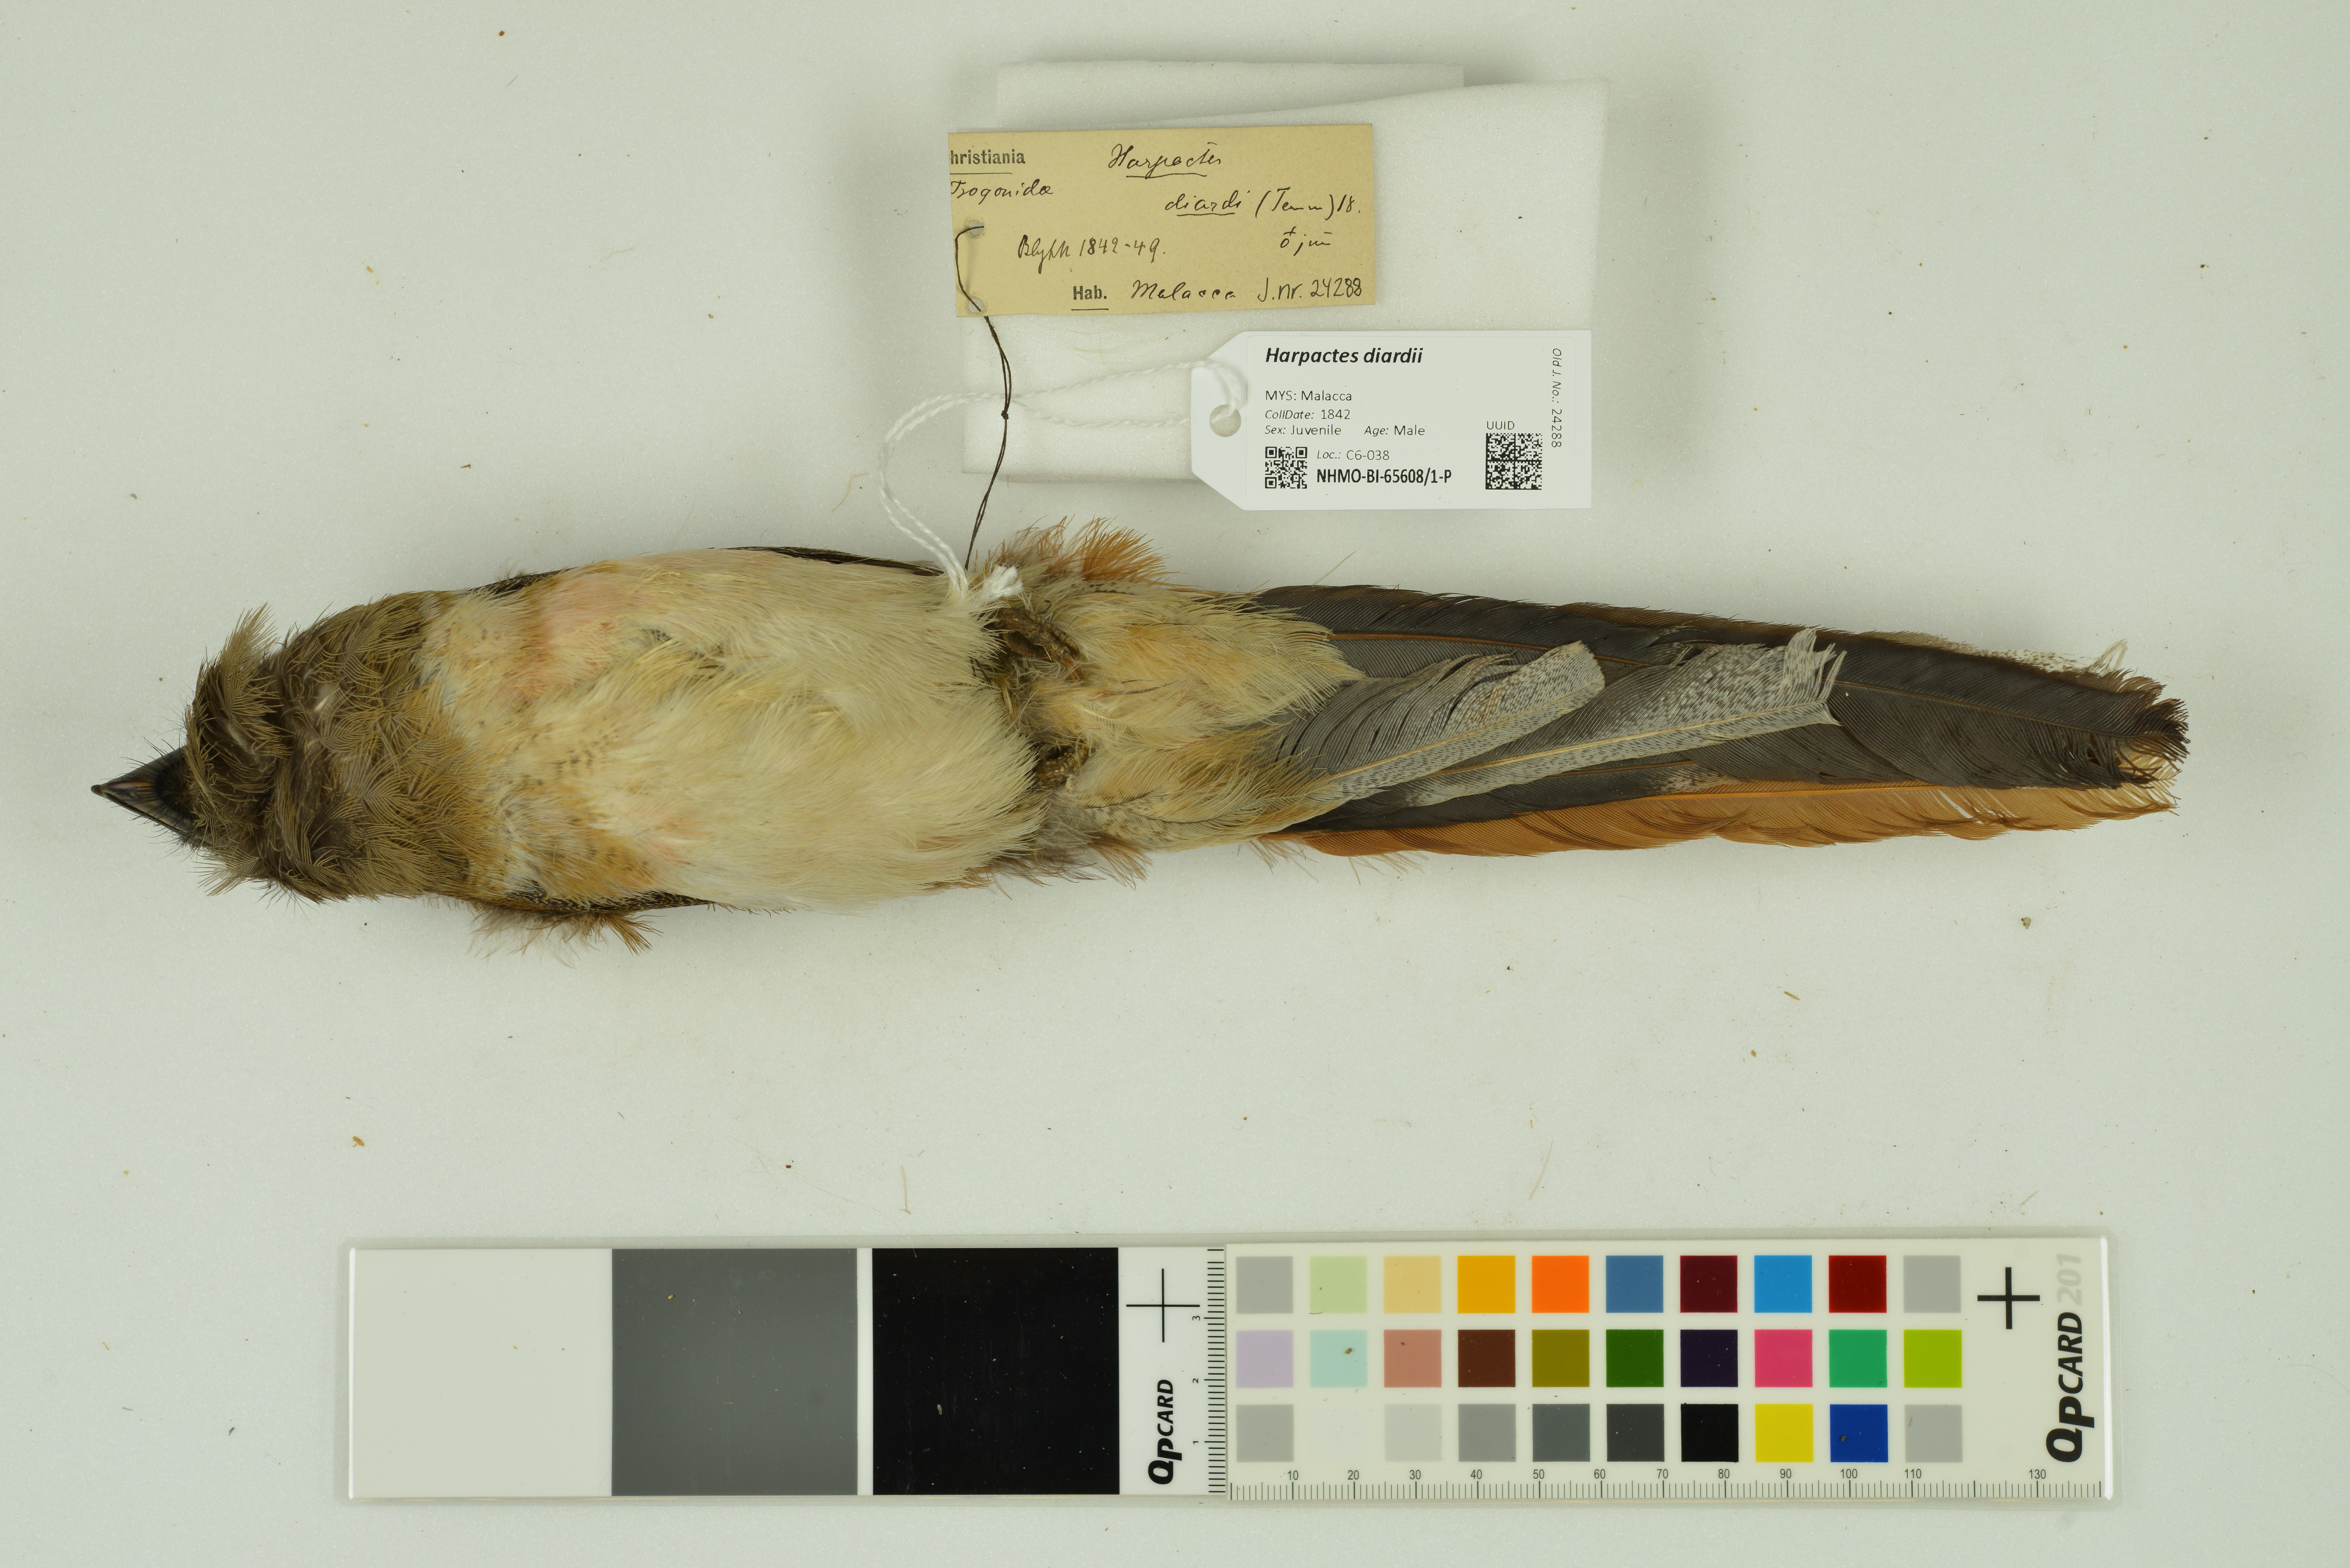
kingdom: Animalia
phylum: Chordata
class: Aves
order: Trogoniformes
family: Trogonidae
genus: Harpactes
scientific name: Harpactes diardii
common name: Diard's trogon
